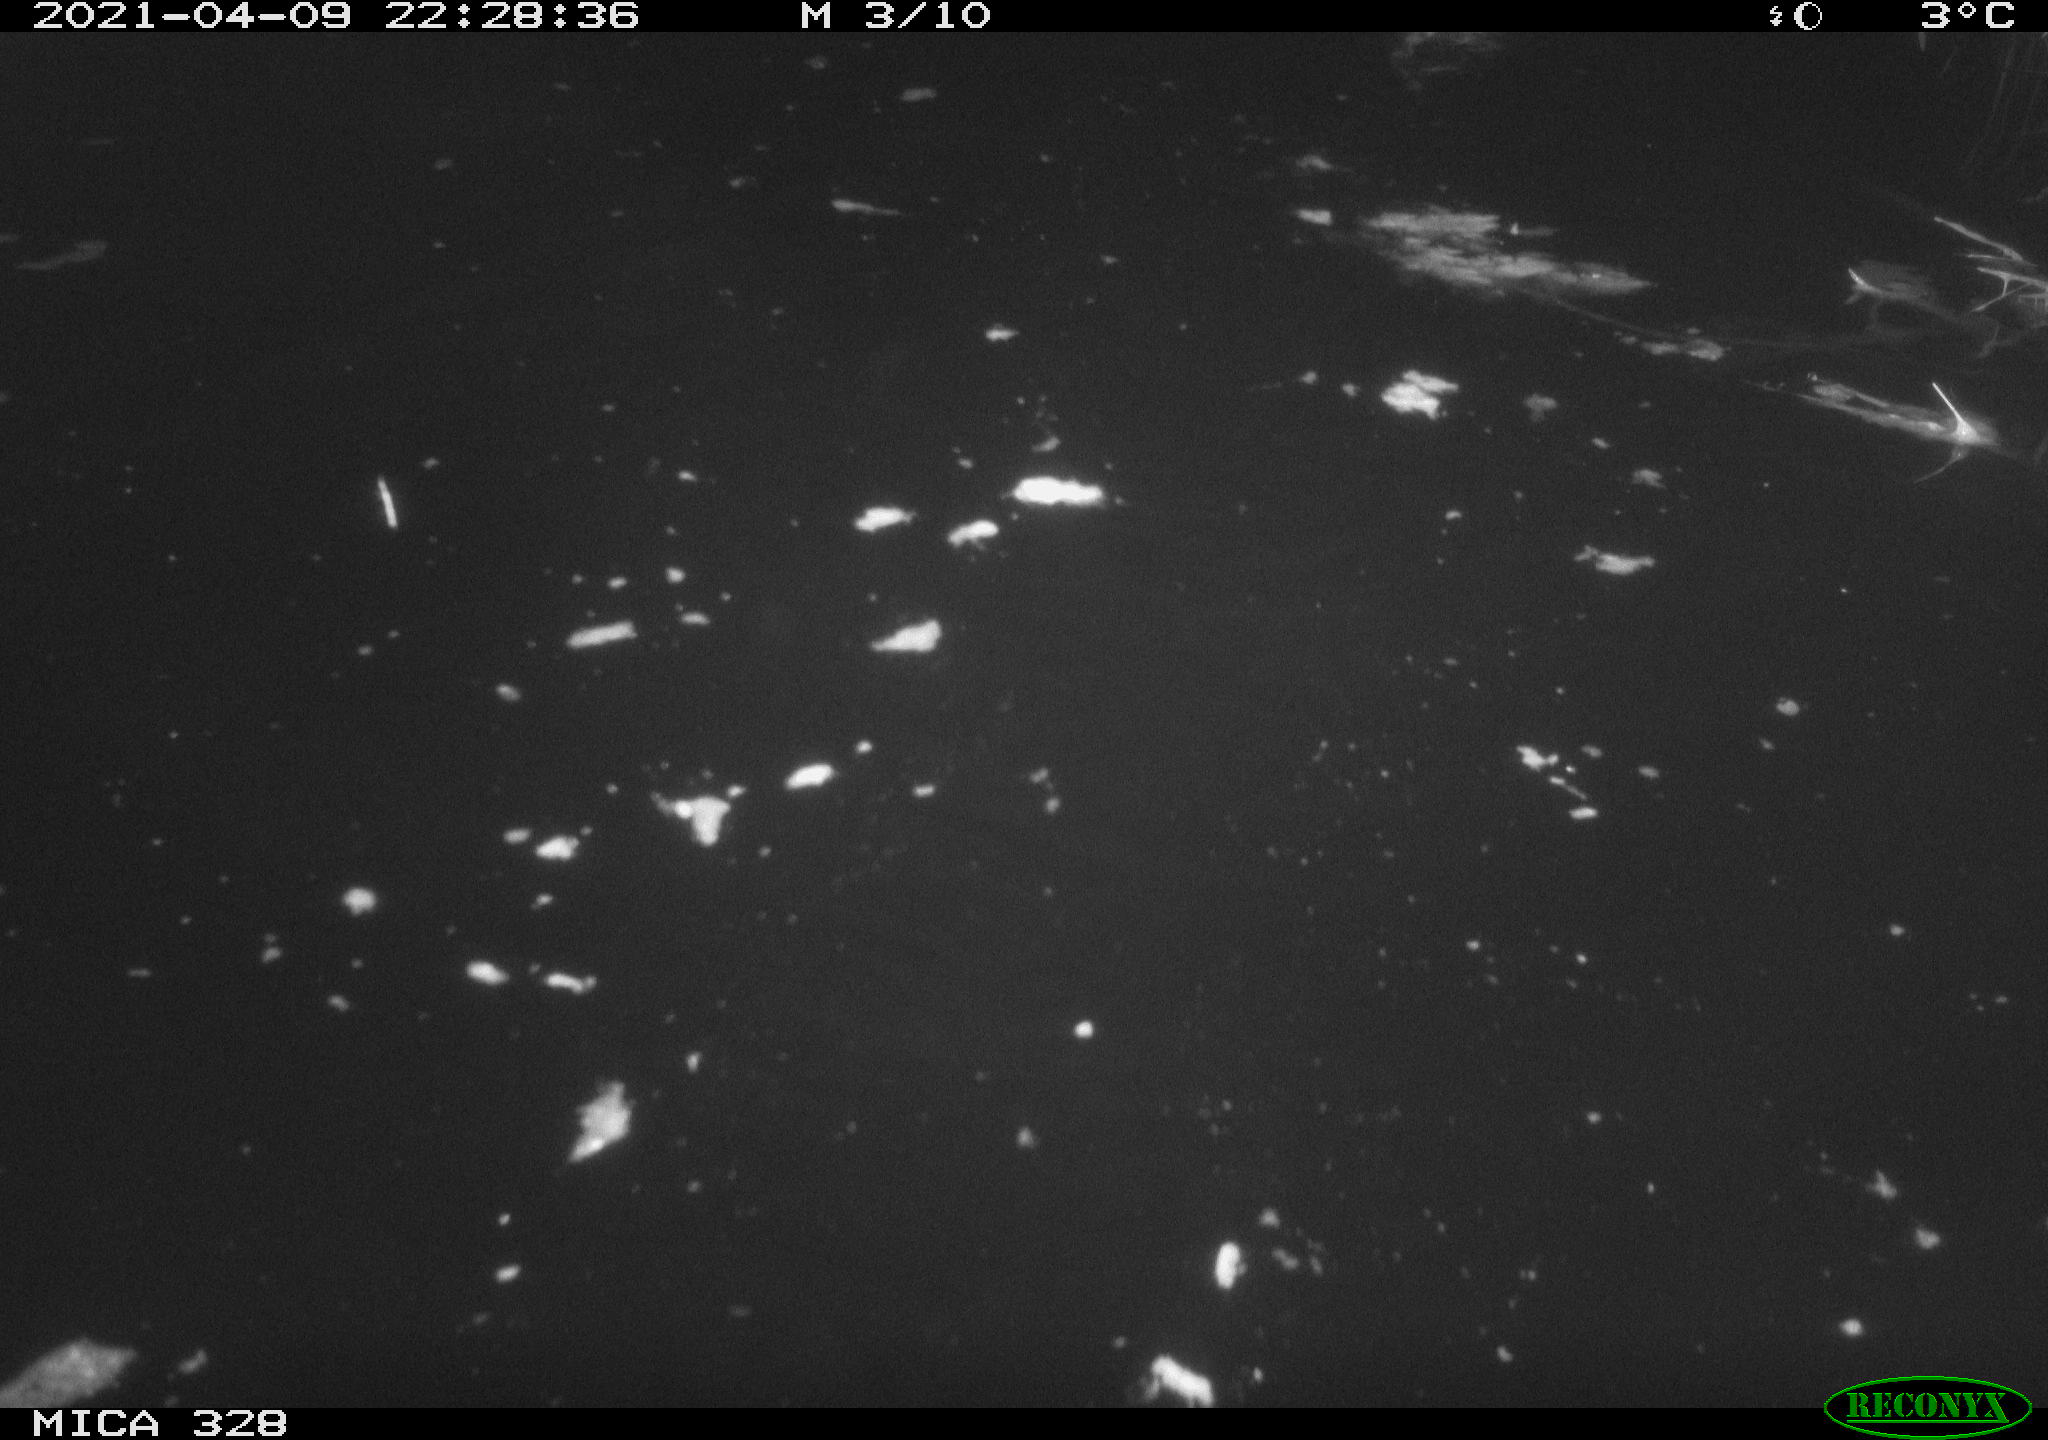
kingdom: Animalia
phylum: Chordata
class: Mammalia
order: Rodentia
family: Cricetidae
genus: Ondatra
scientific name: Ondatra zibethicus
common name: Muskrat
